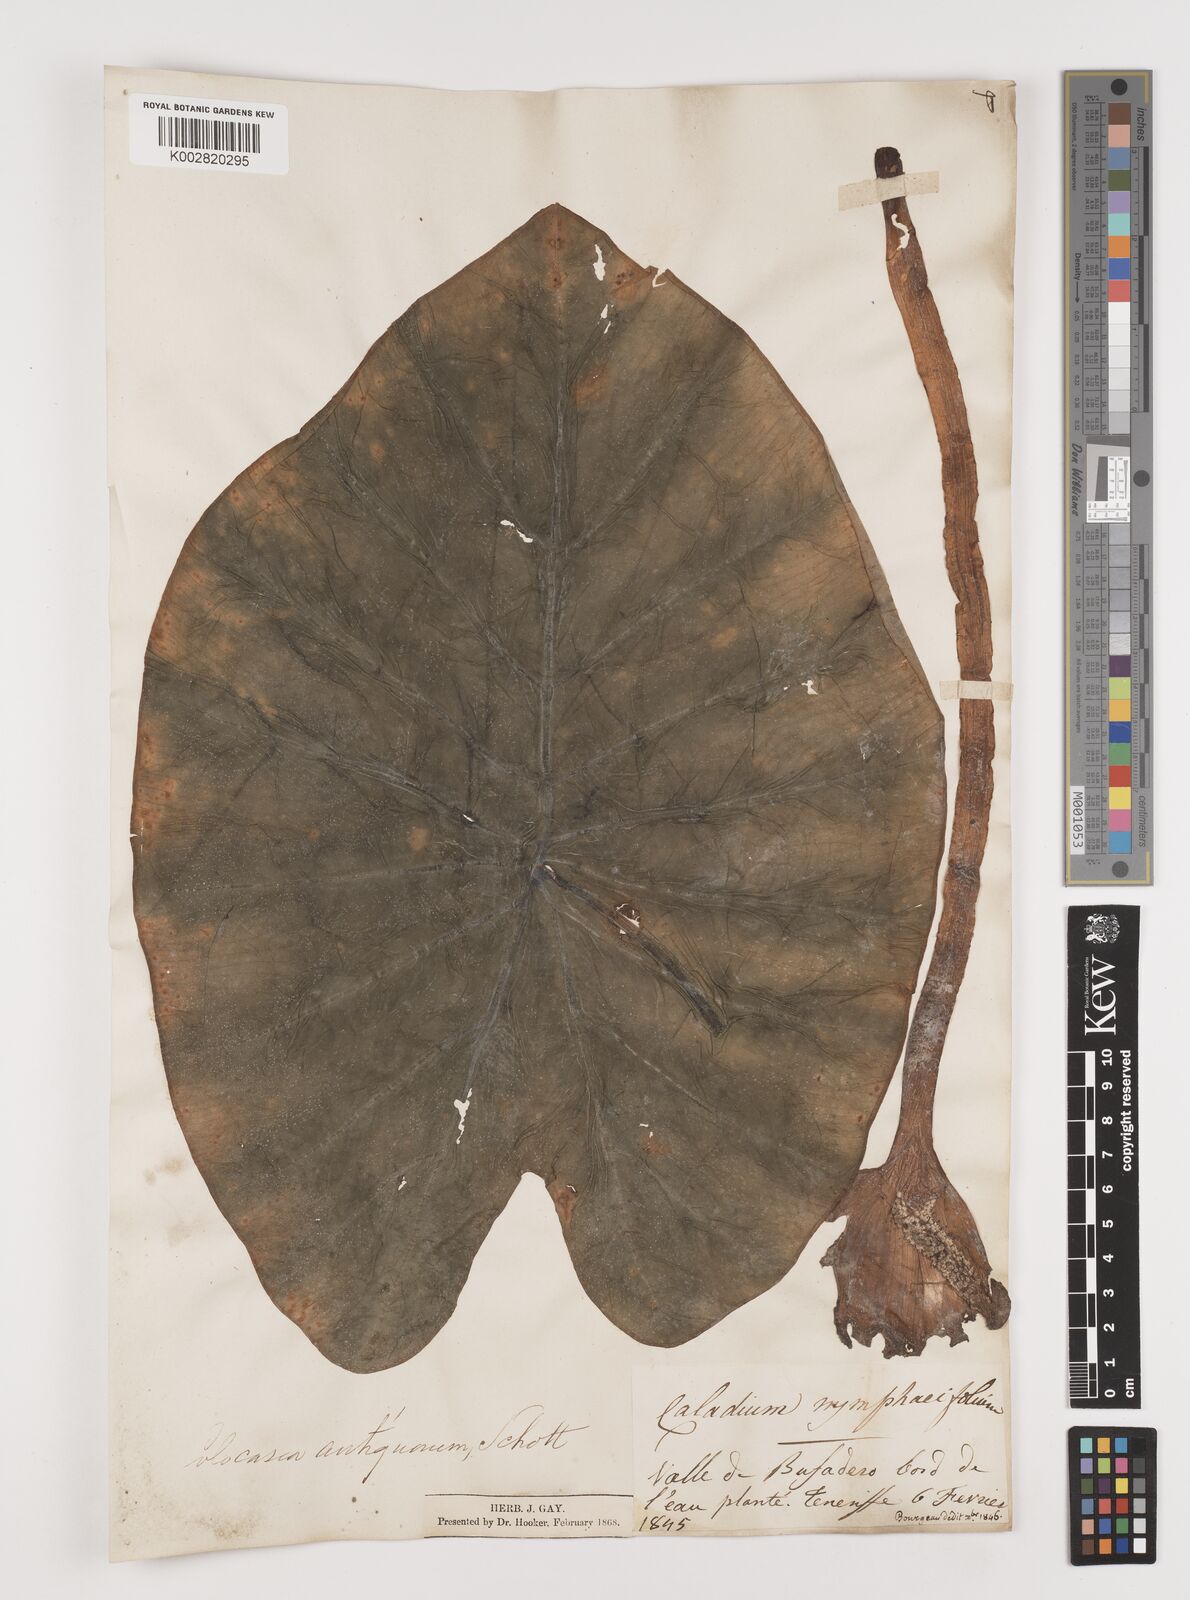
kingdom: Plantae
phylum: Tracheophyta
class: Liliopsida
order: Alismatales
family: Araceae
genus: Colocasia
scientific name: Colocasia esculenta
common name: Taro
